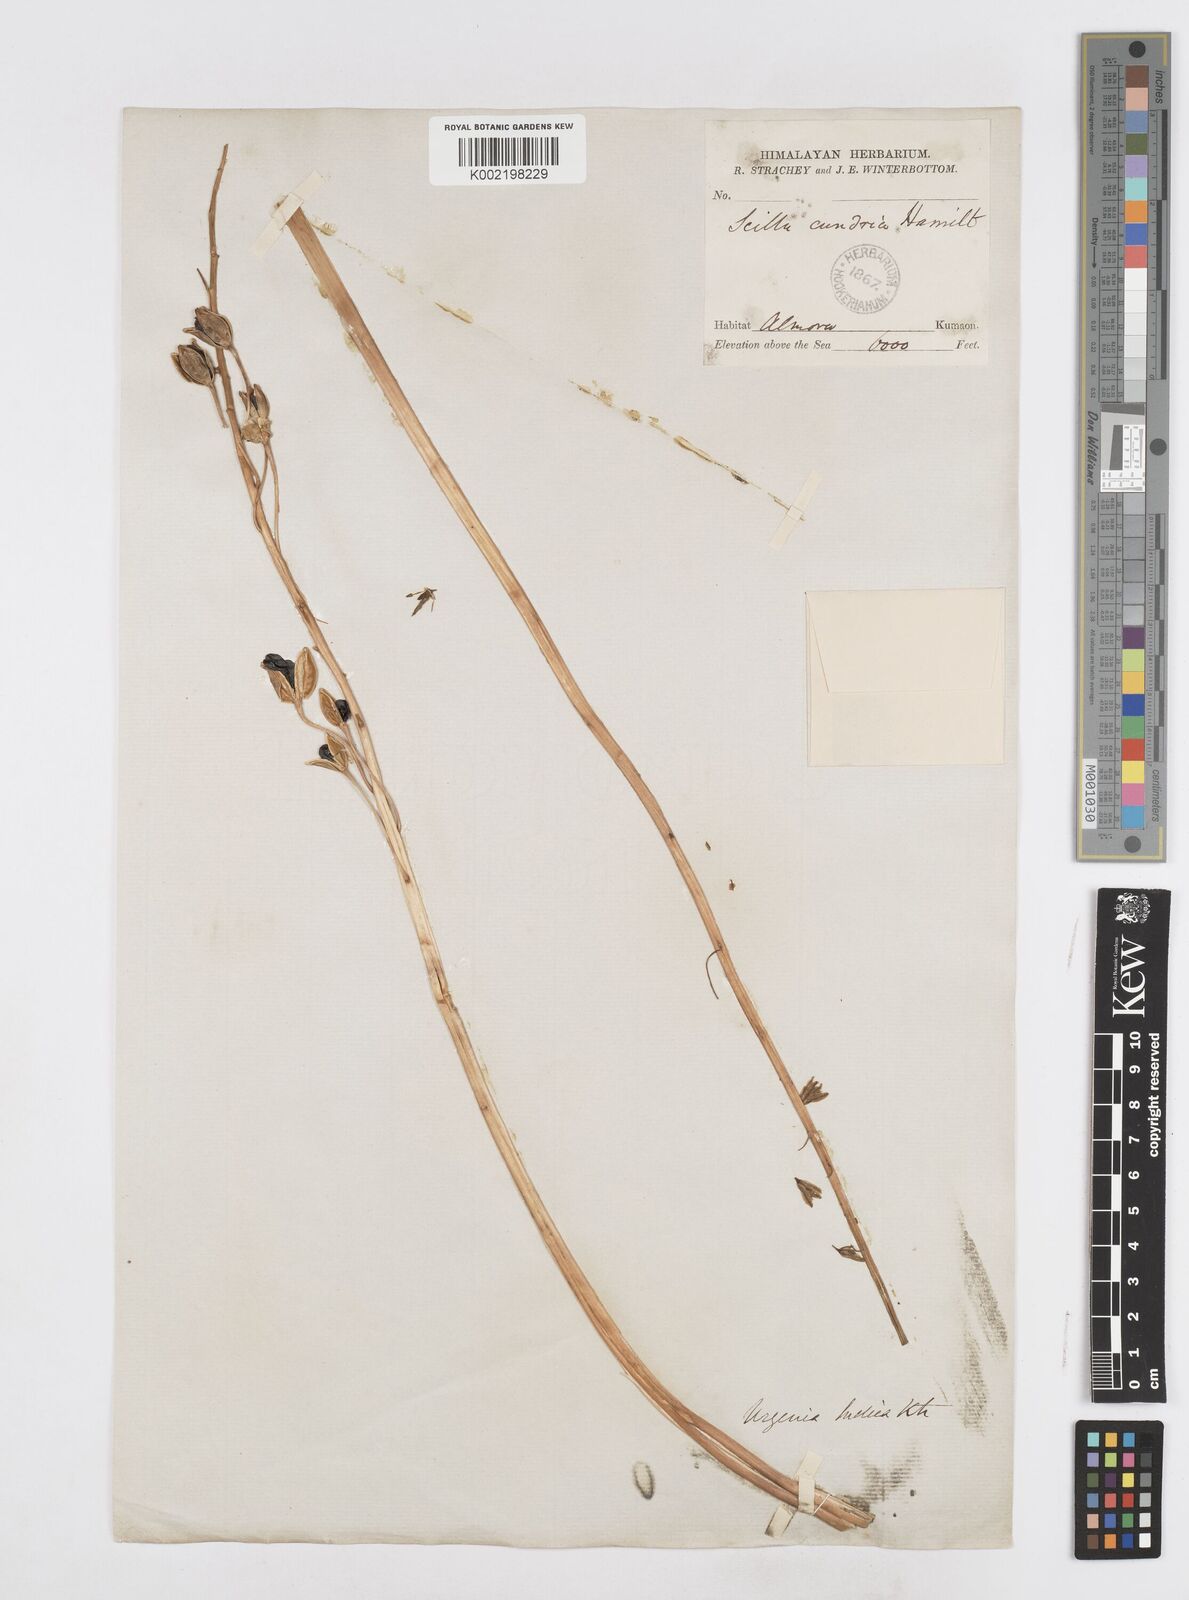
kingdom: Plantae
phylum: Tracheophyta
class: Liliopsida
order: Asparagales
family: Asparagaceae
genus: Drimia
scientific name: Drimia indica
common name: Indian-squill
